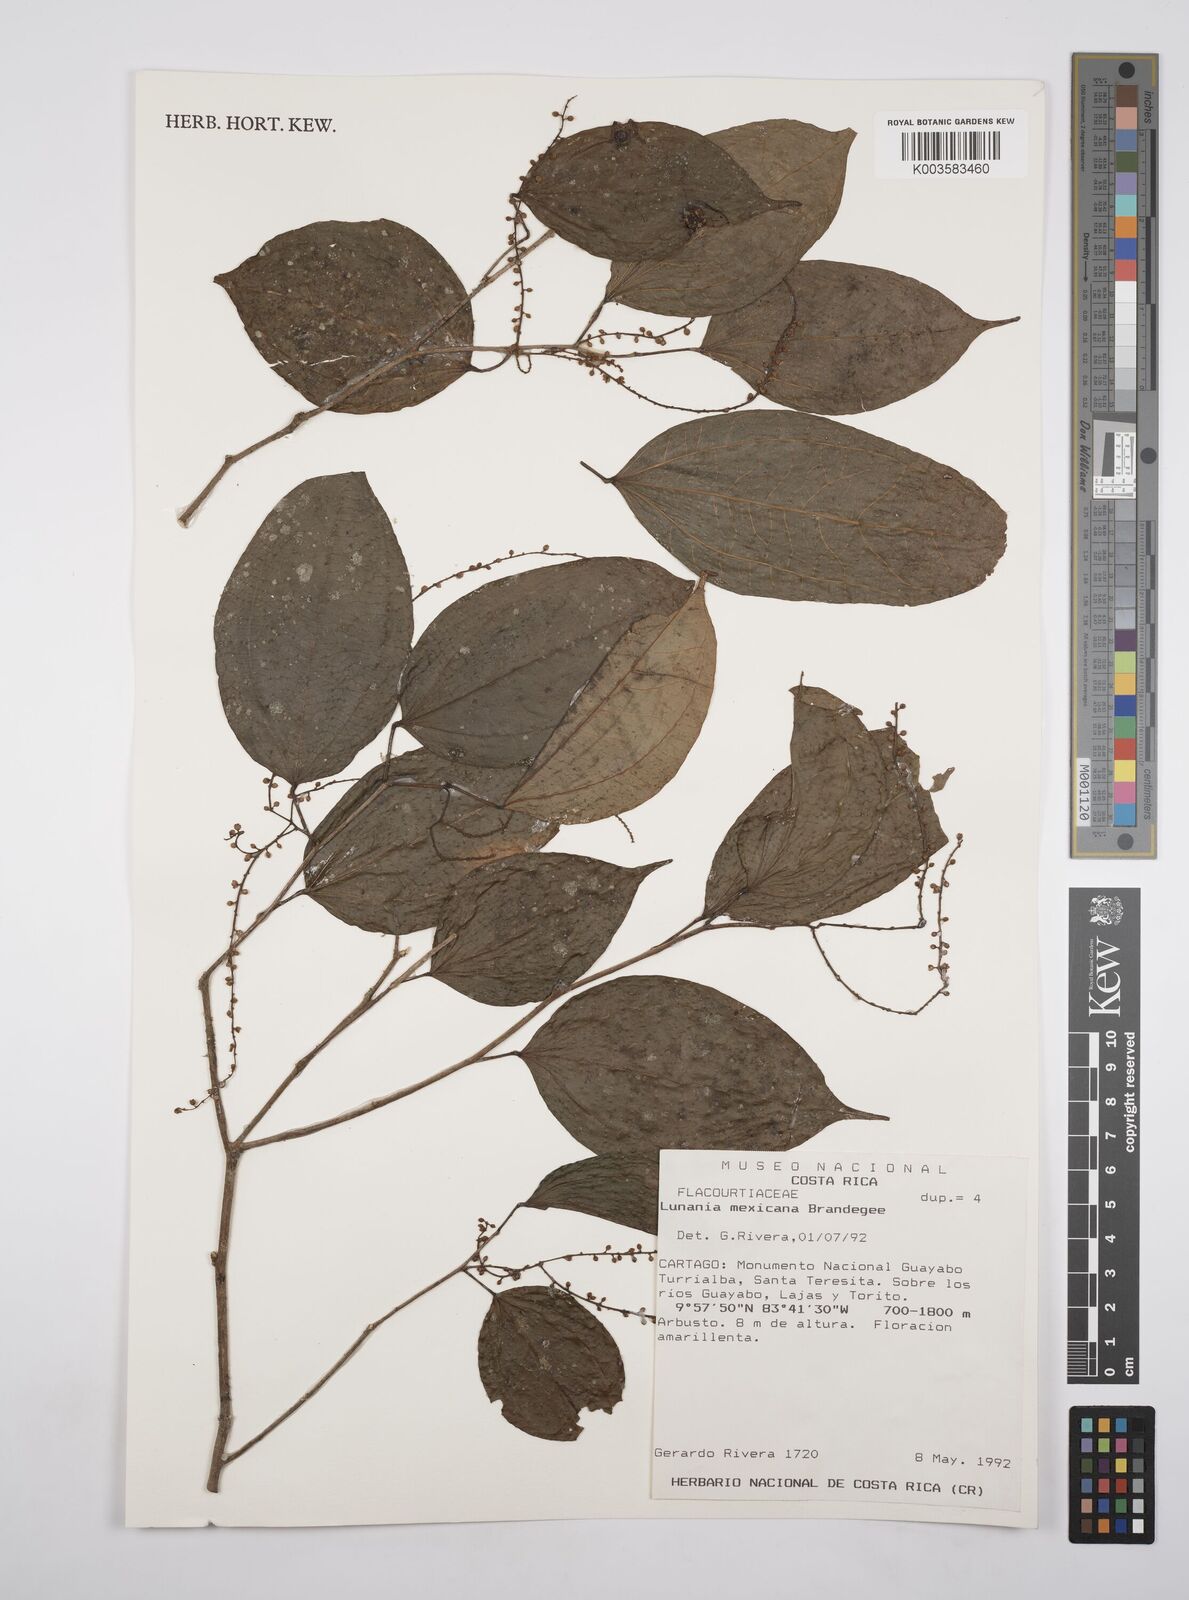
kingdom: Plantae
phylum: Tracheophyta
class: Magnoliopsida
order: Malpighiales
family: Salicaceae
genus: Lunania
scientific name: Lunania mexicana
